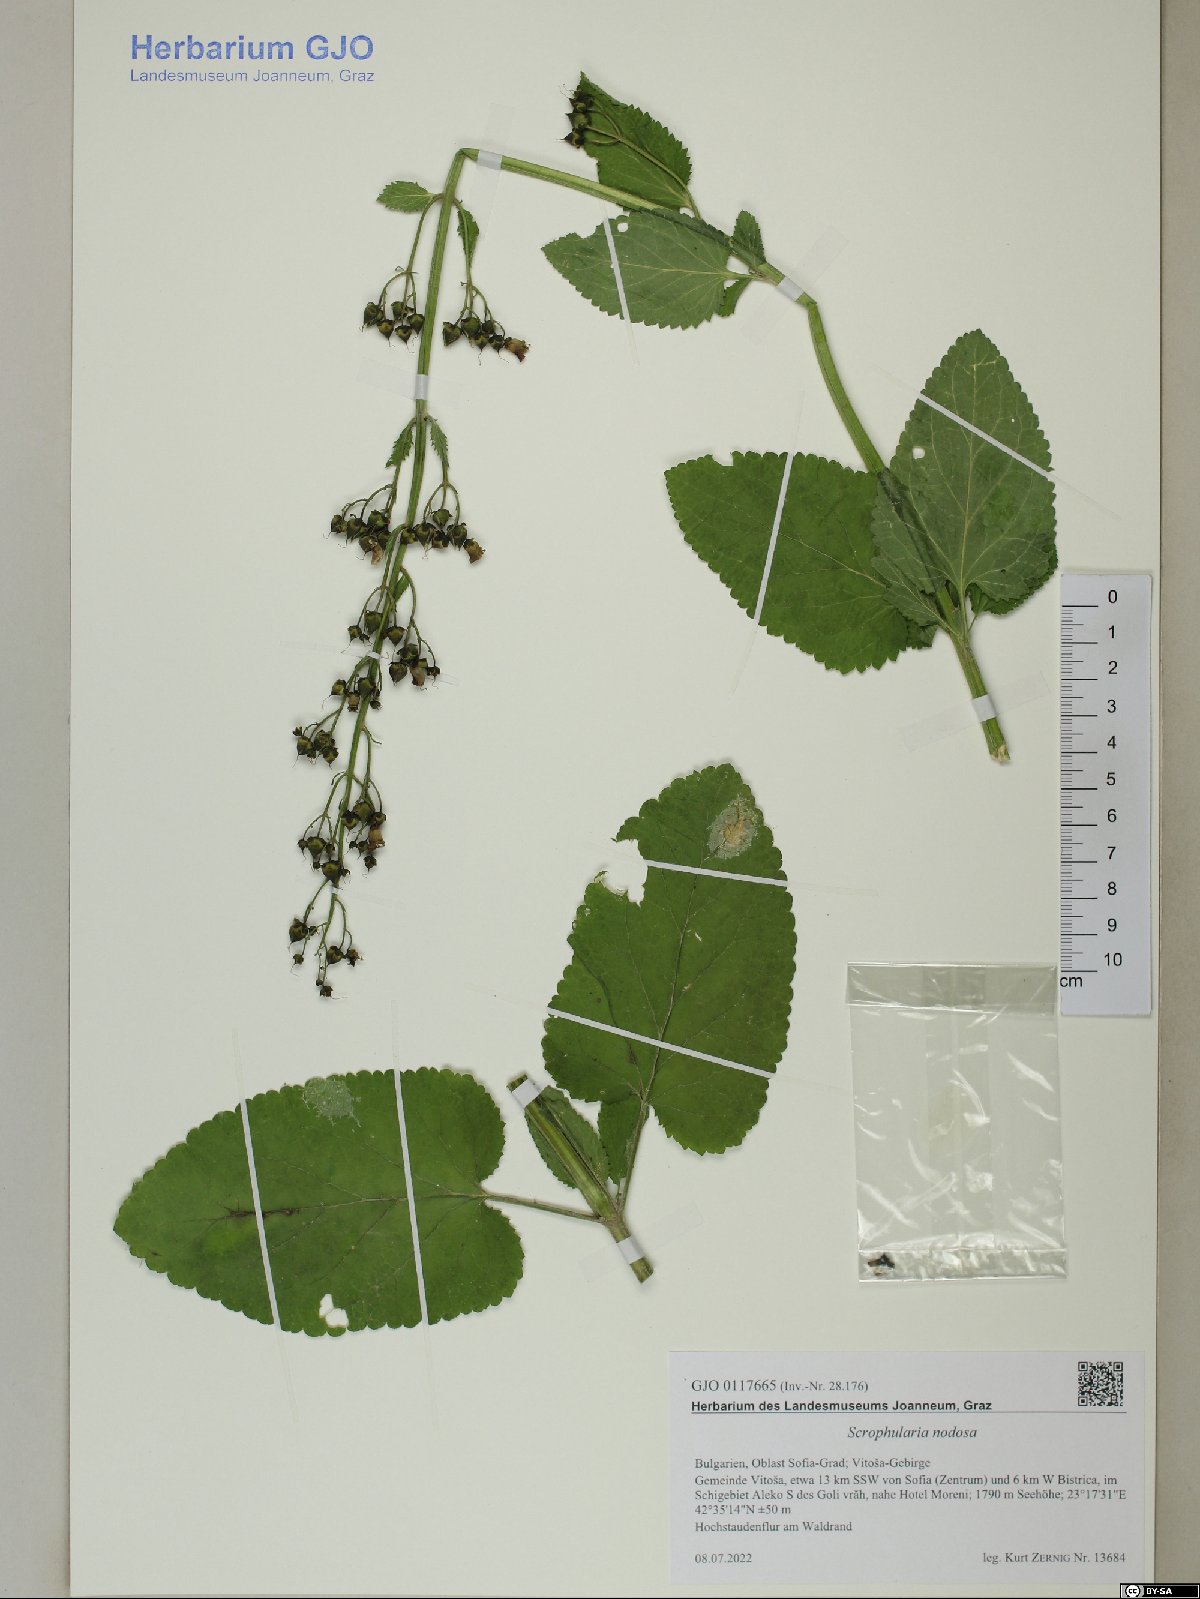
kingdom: Plantae
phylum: Tracheophyta
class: Magnoliopsida
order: Lamiales
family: Scrophulariaceae
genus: Scrophularia
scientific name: Scrophularia nodosa
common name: Common figwort
